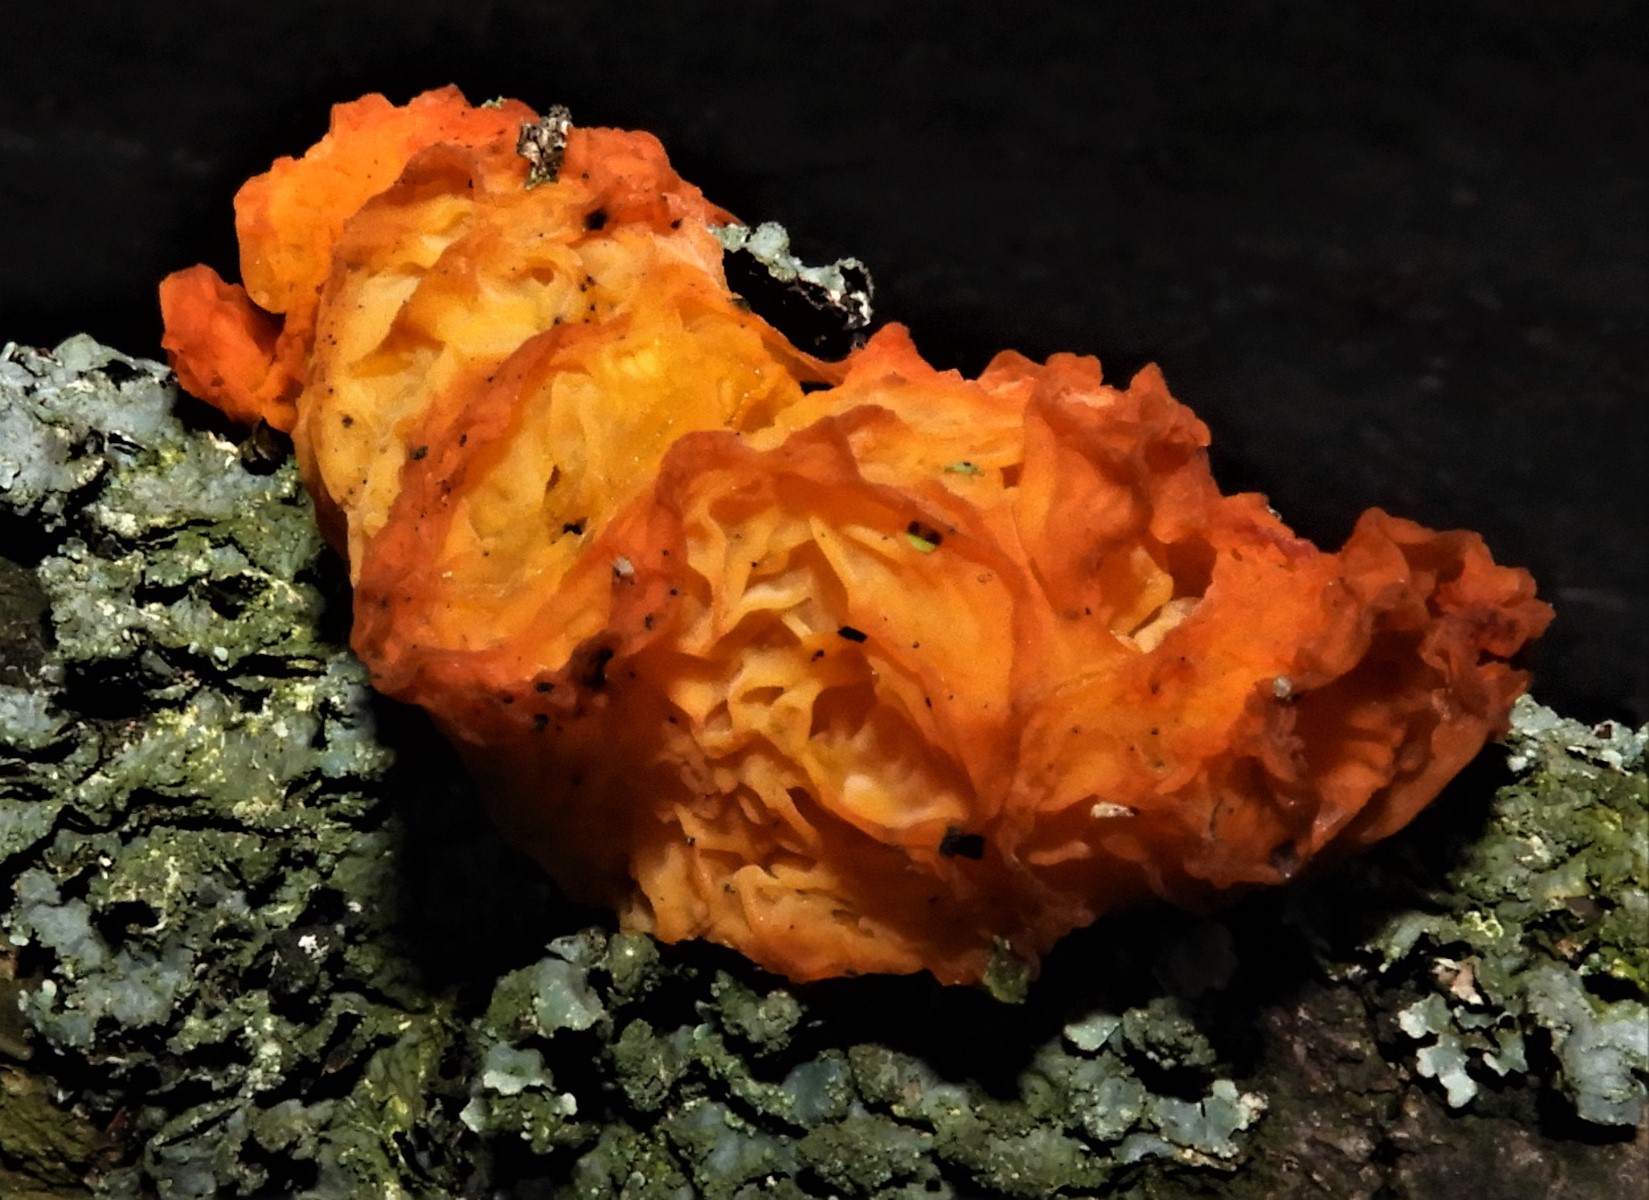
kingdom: Fungi
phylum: Basidiomycota
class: Tremellomycetes
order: Tremellales
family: Tremellaceae
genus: Tremella
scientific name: Tremella mesenterica
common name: gul bævresvamp
